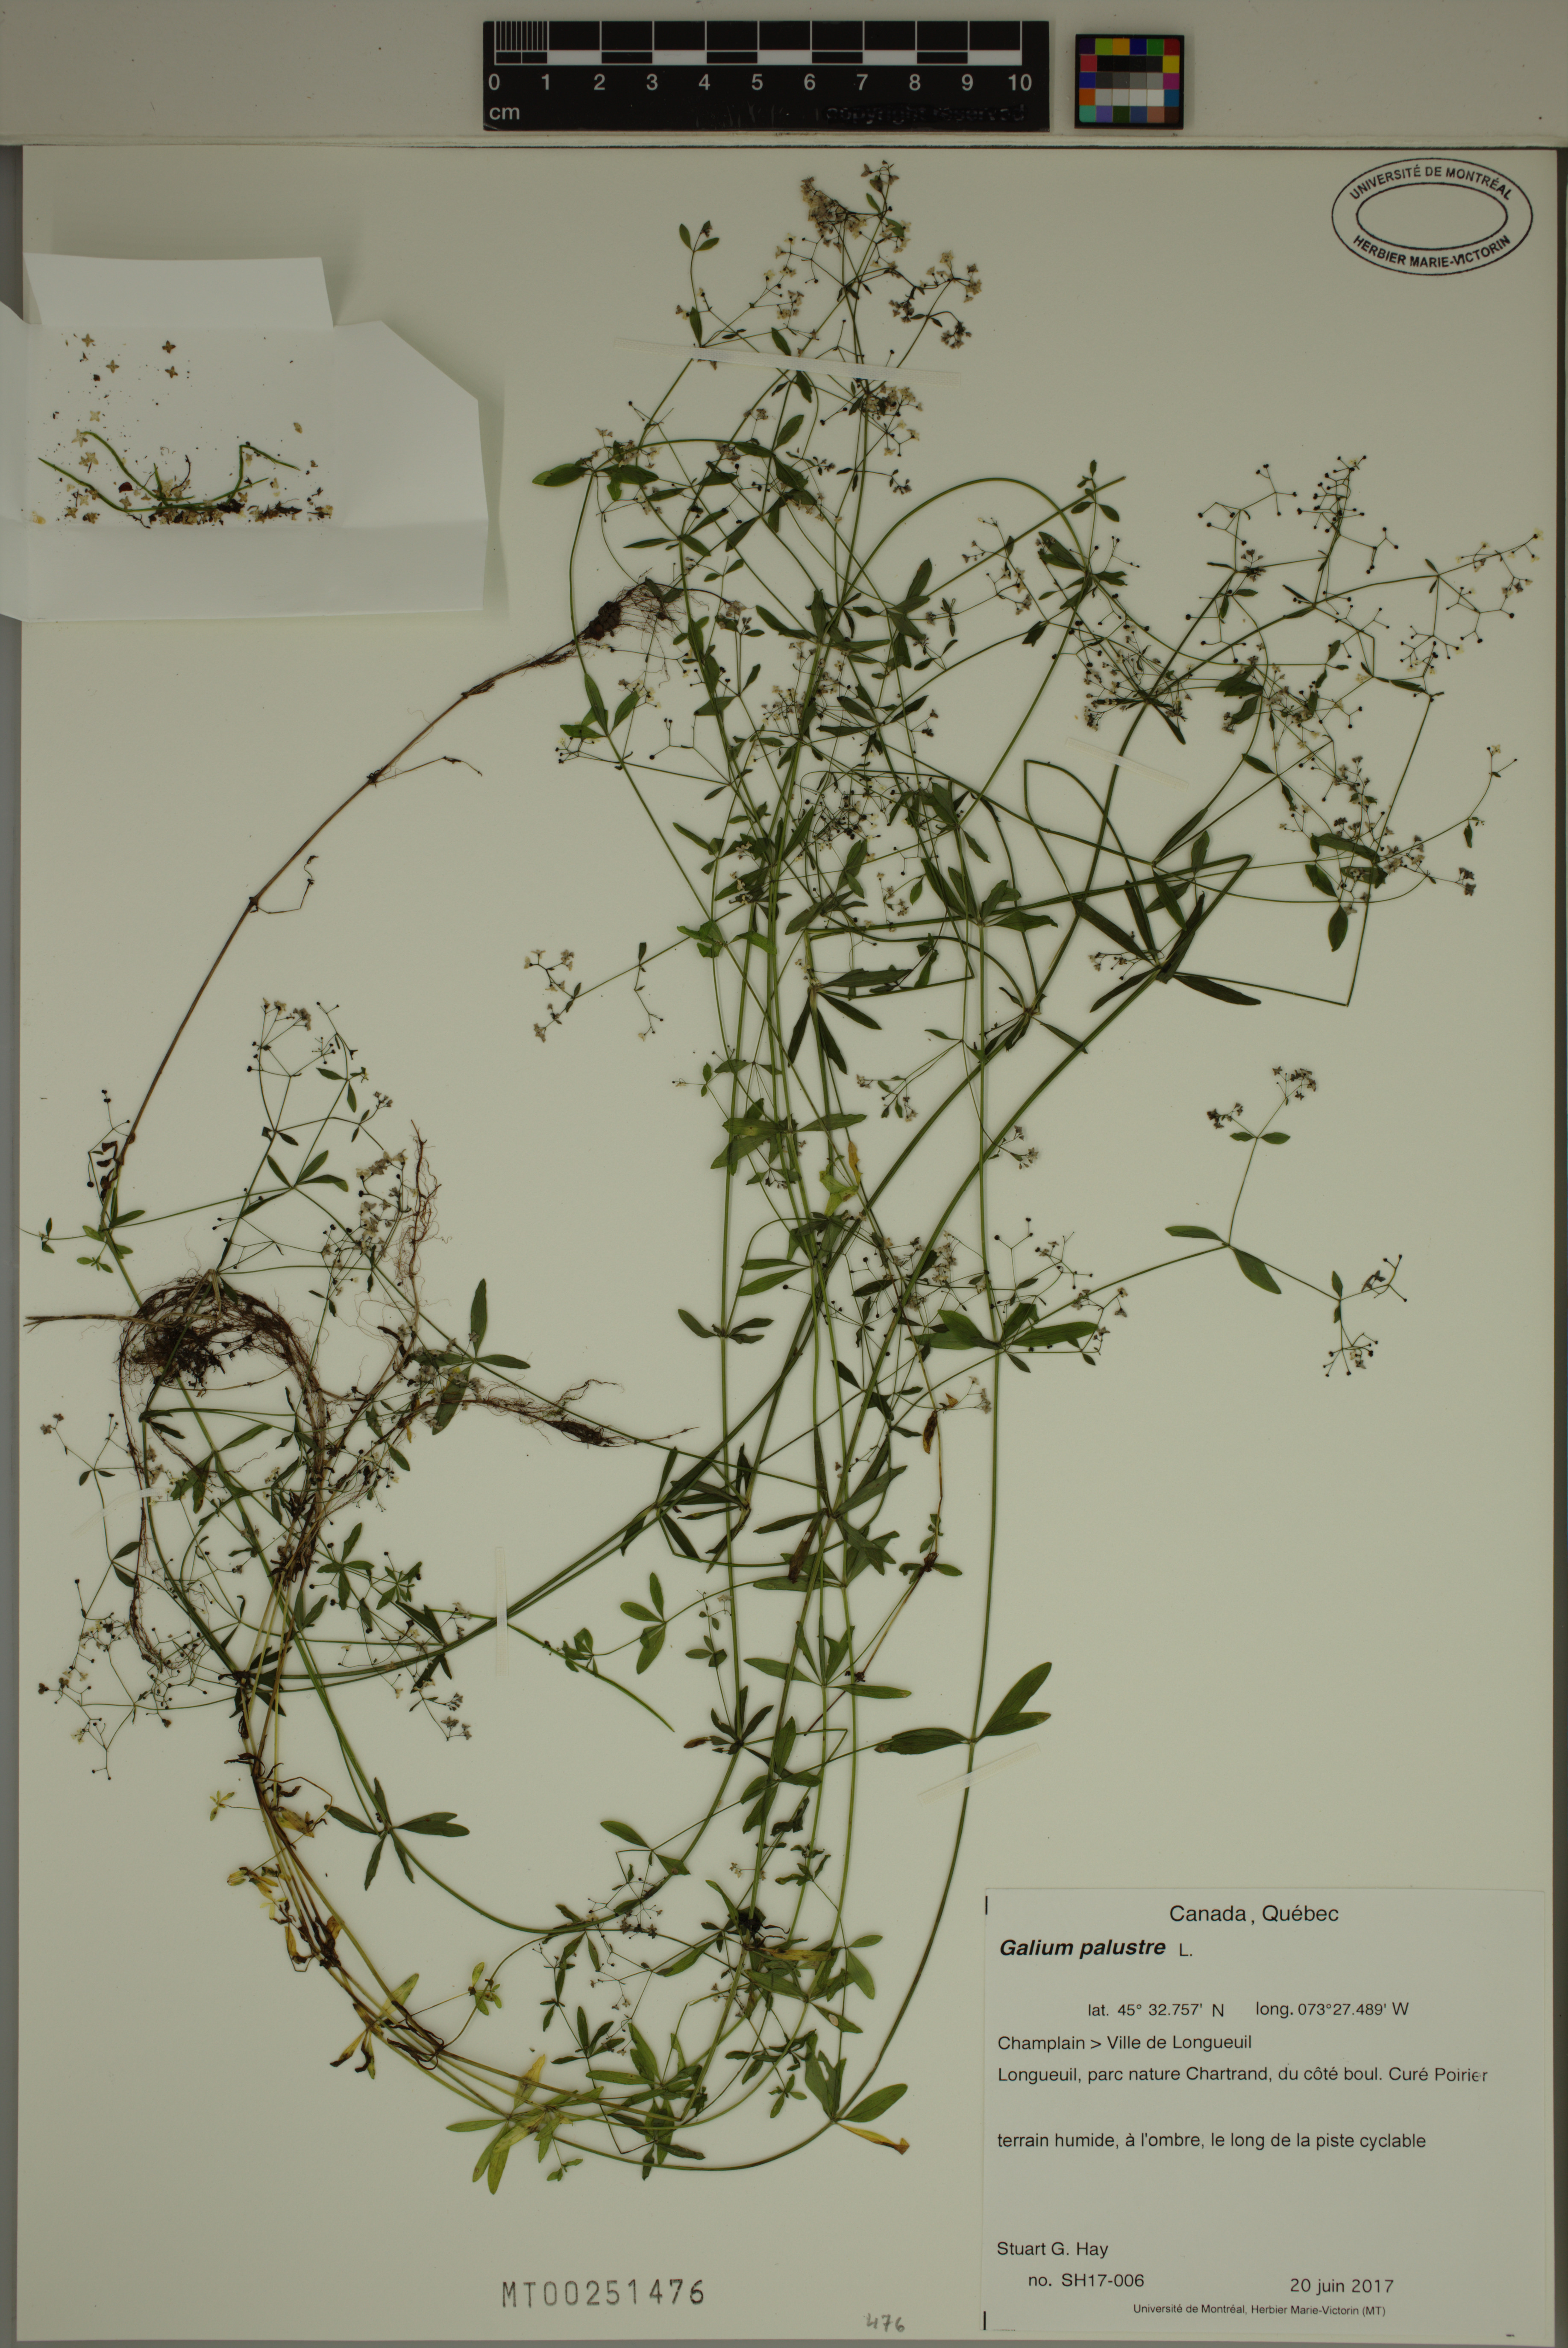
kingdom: Plantae
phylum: Tracheophyta
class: Magnoliopsida
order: Gentianales
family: Rubiaceae
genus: Galium
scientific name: Galium palustre
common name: Common marsh-bedstraw
